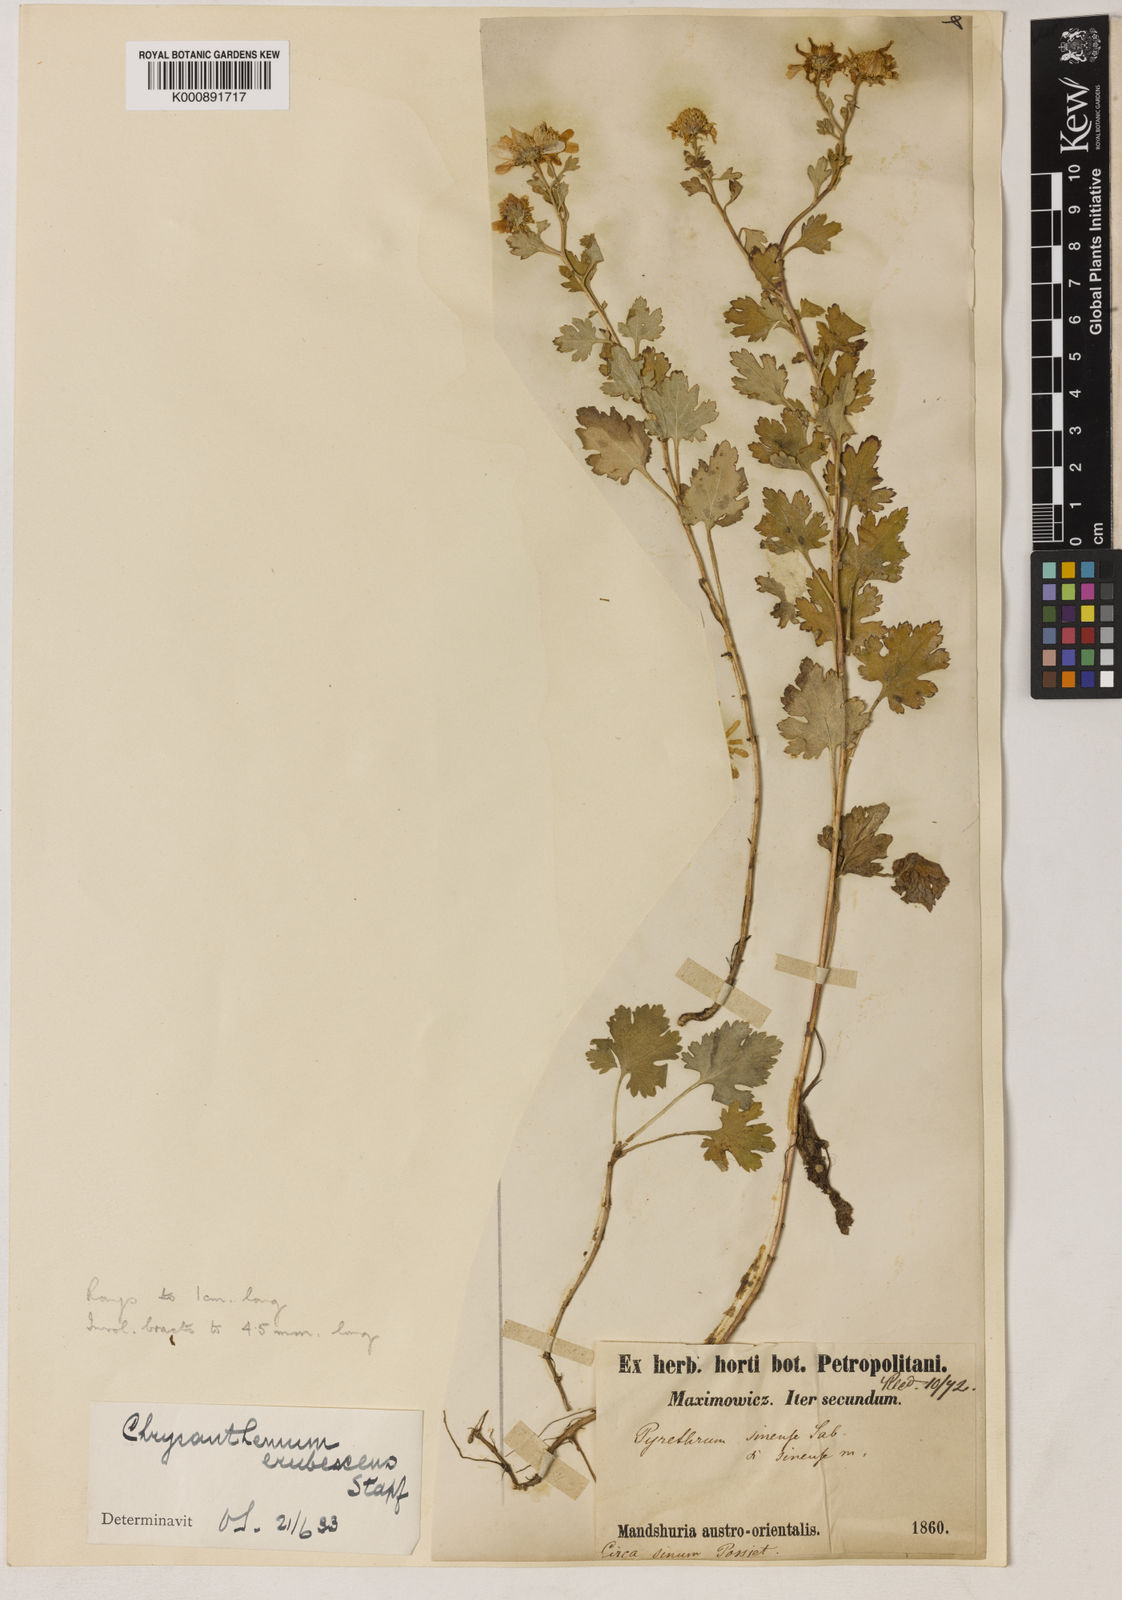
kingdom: Plantae
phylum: Tracheophyta
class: Magnoliopsida
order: Asterales
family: Asteraceae
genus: Chrysanthemum
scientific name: Chrysanthemum
